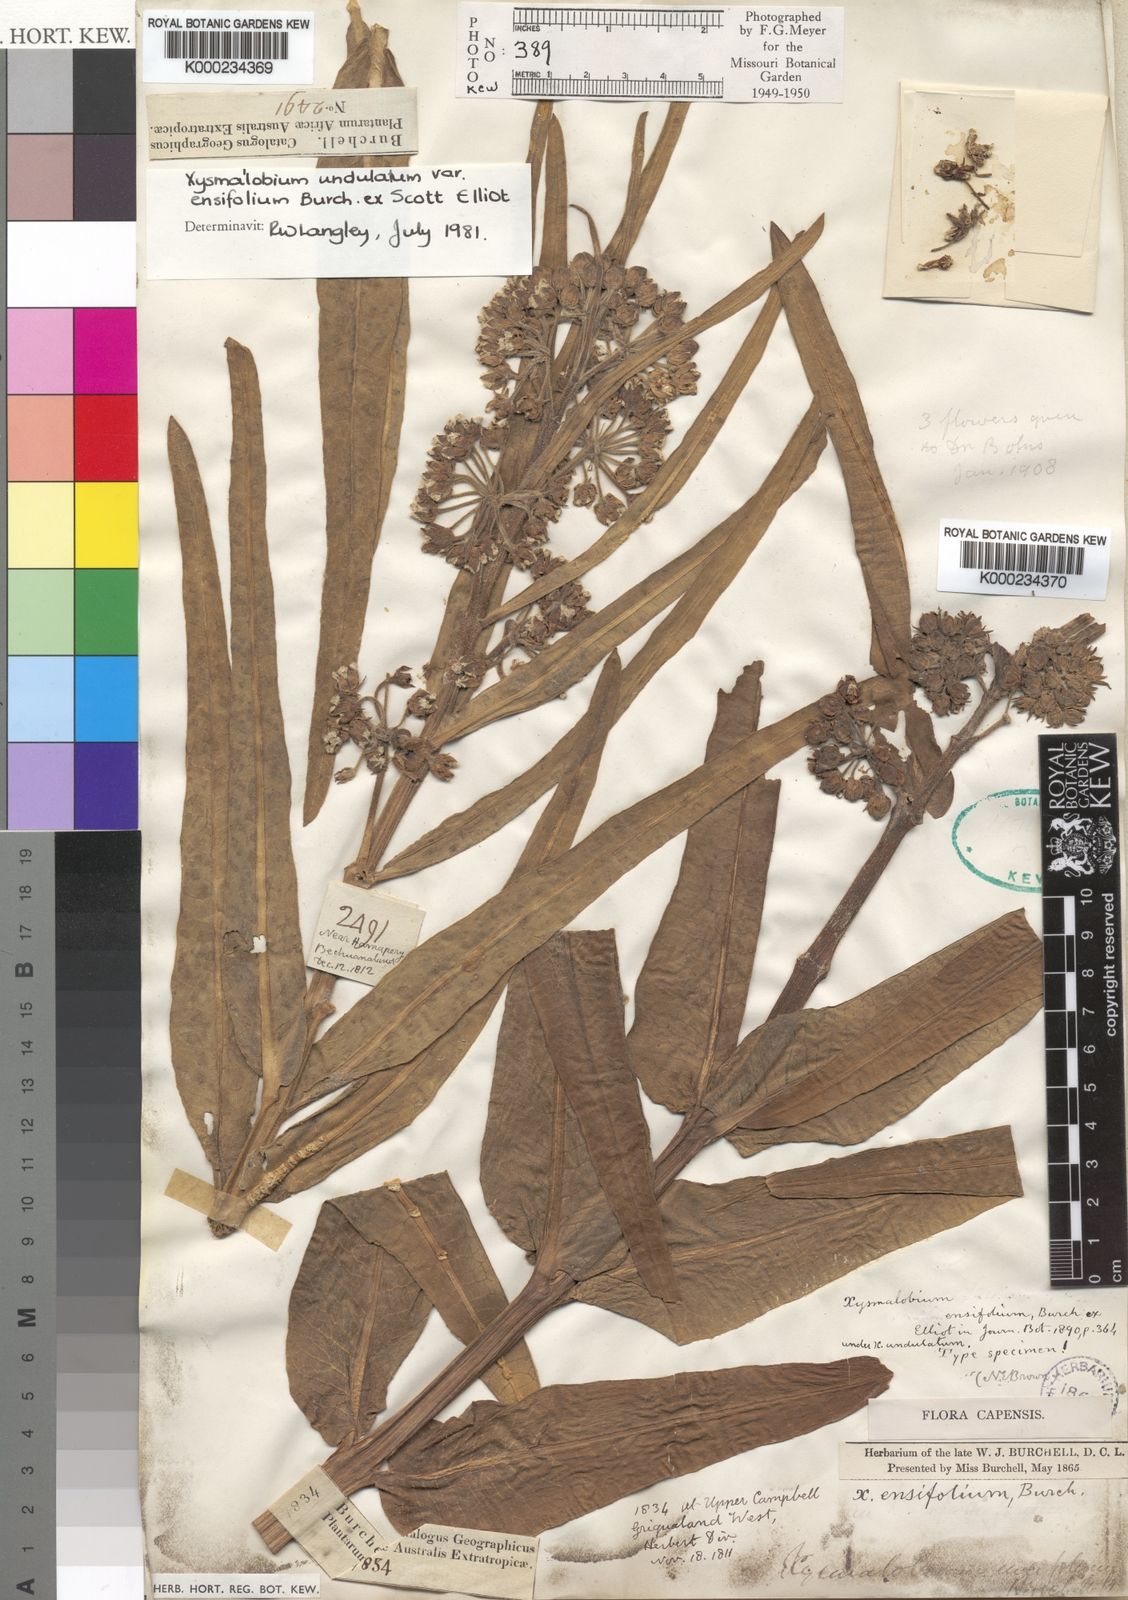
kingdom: Plantae
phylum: Tracheophyta
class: Magnoliopsida
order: Gentianales
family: Apocynaceae
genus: Xysmalobium
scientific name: Xysmalobium undulatum
